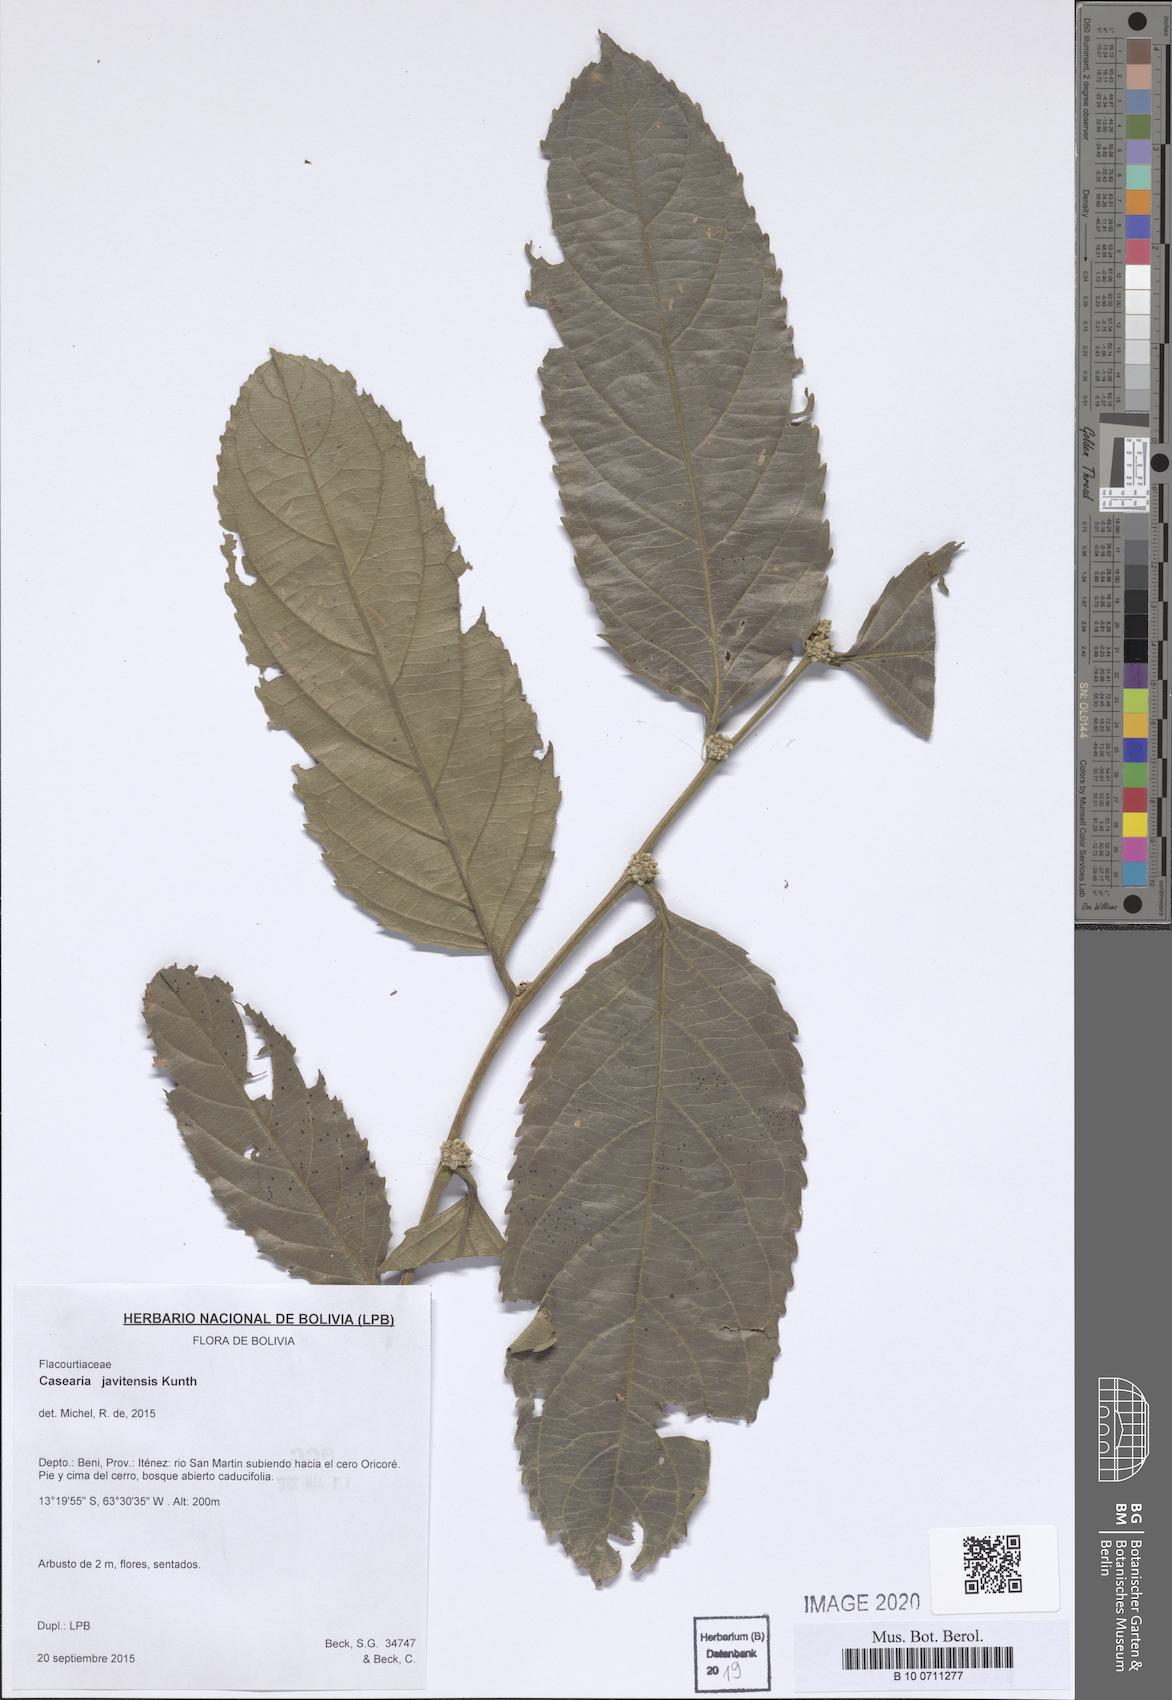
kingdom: Plantae
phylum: Tracheophyta
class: Magnoliopsida
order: Malpighiales
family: Salicaceae
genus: Piparea
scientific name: Piparea multiflora
